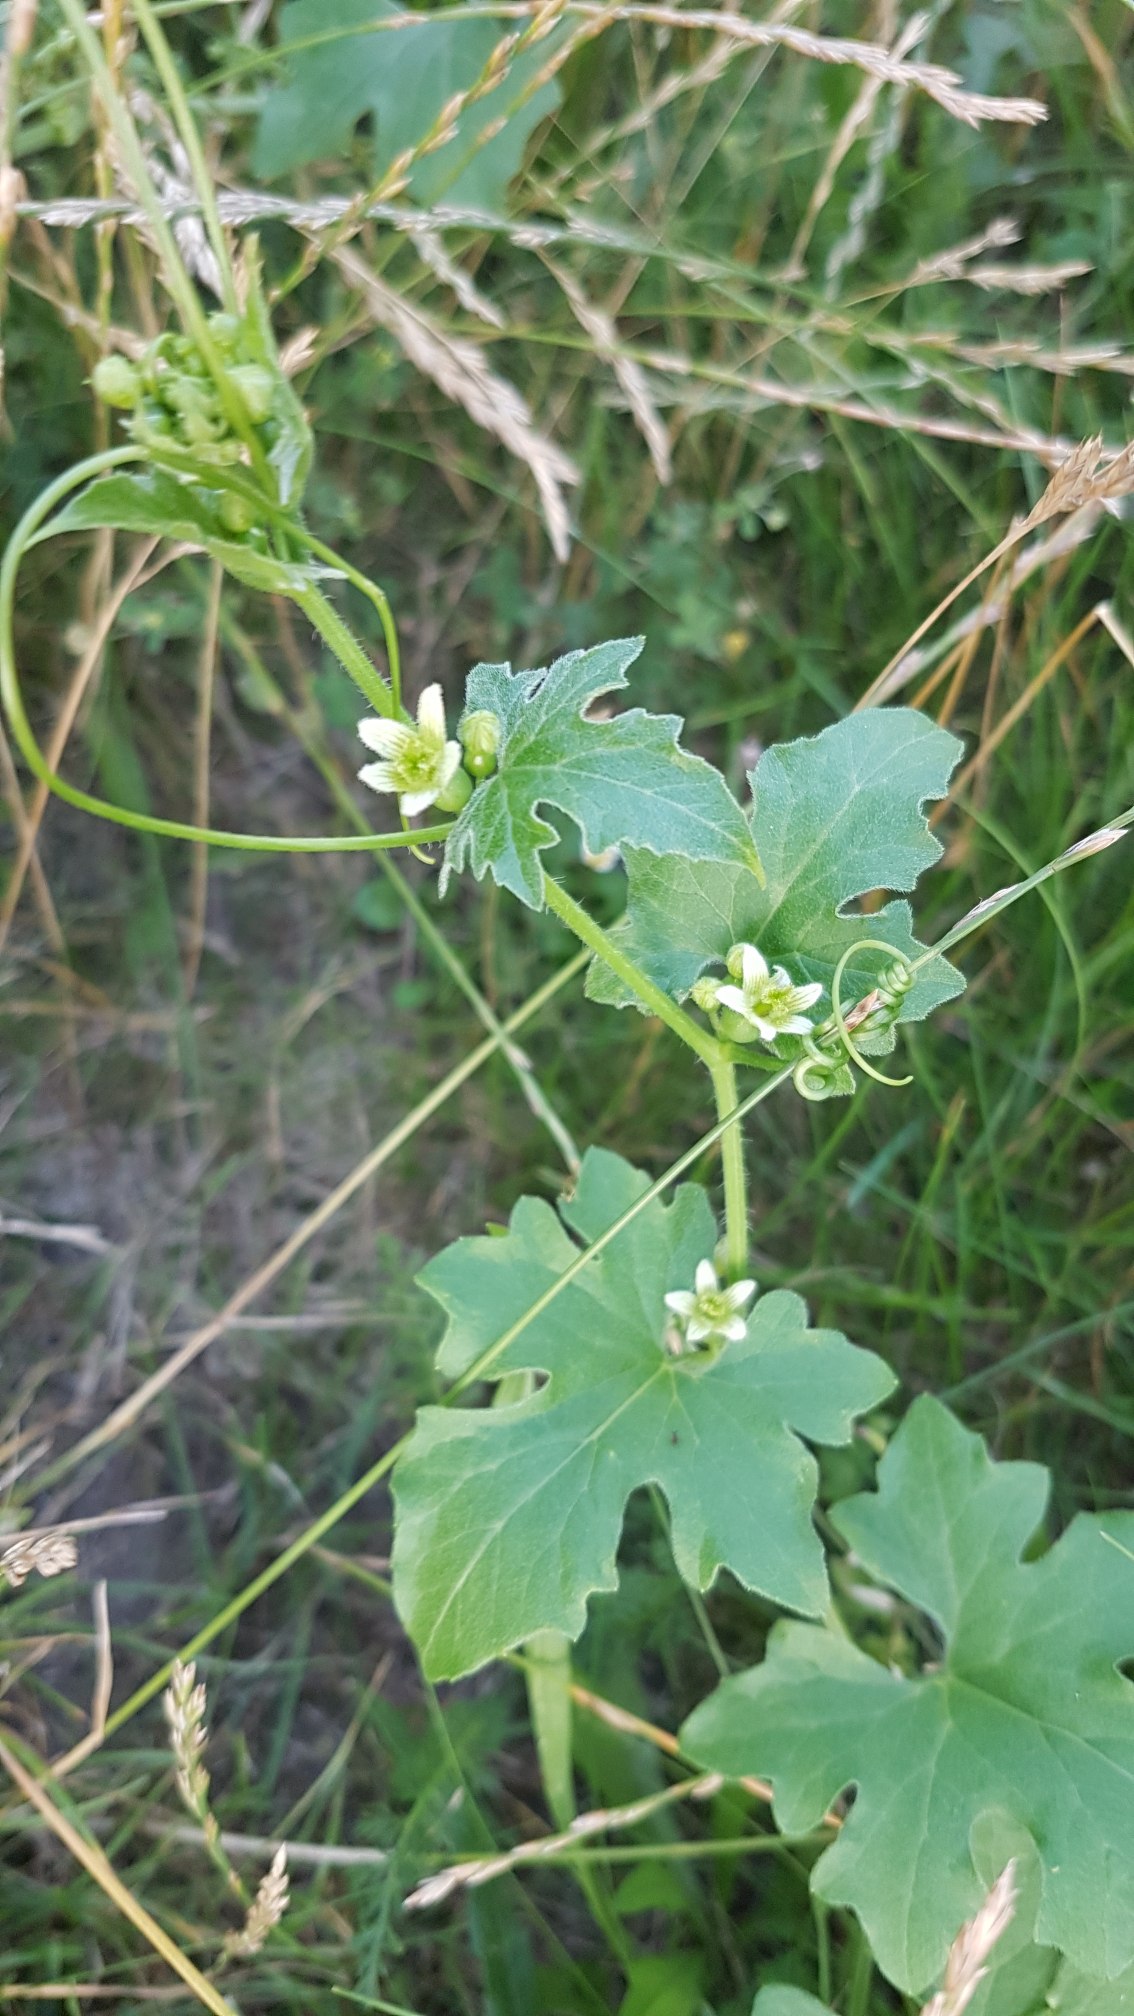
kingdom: Plantae
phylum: Tracheophyta
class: Magnoliopsida
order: Cucurbitales
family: Cucurbitaceae
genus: Bryonia
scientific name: Bryonia dioica
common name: Tvebo galdebær
